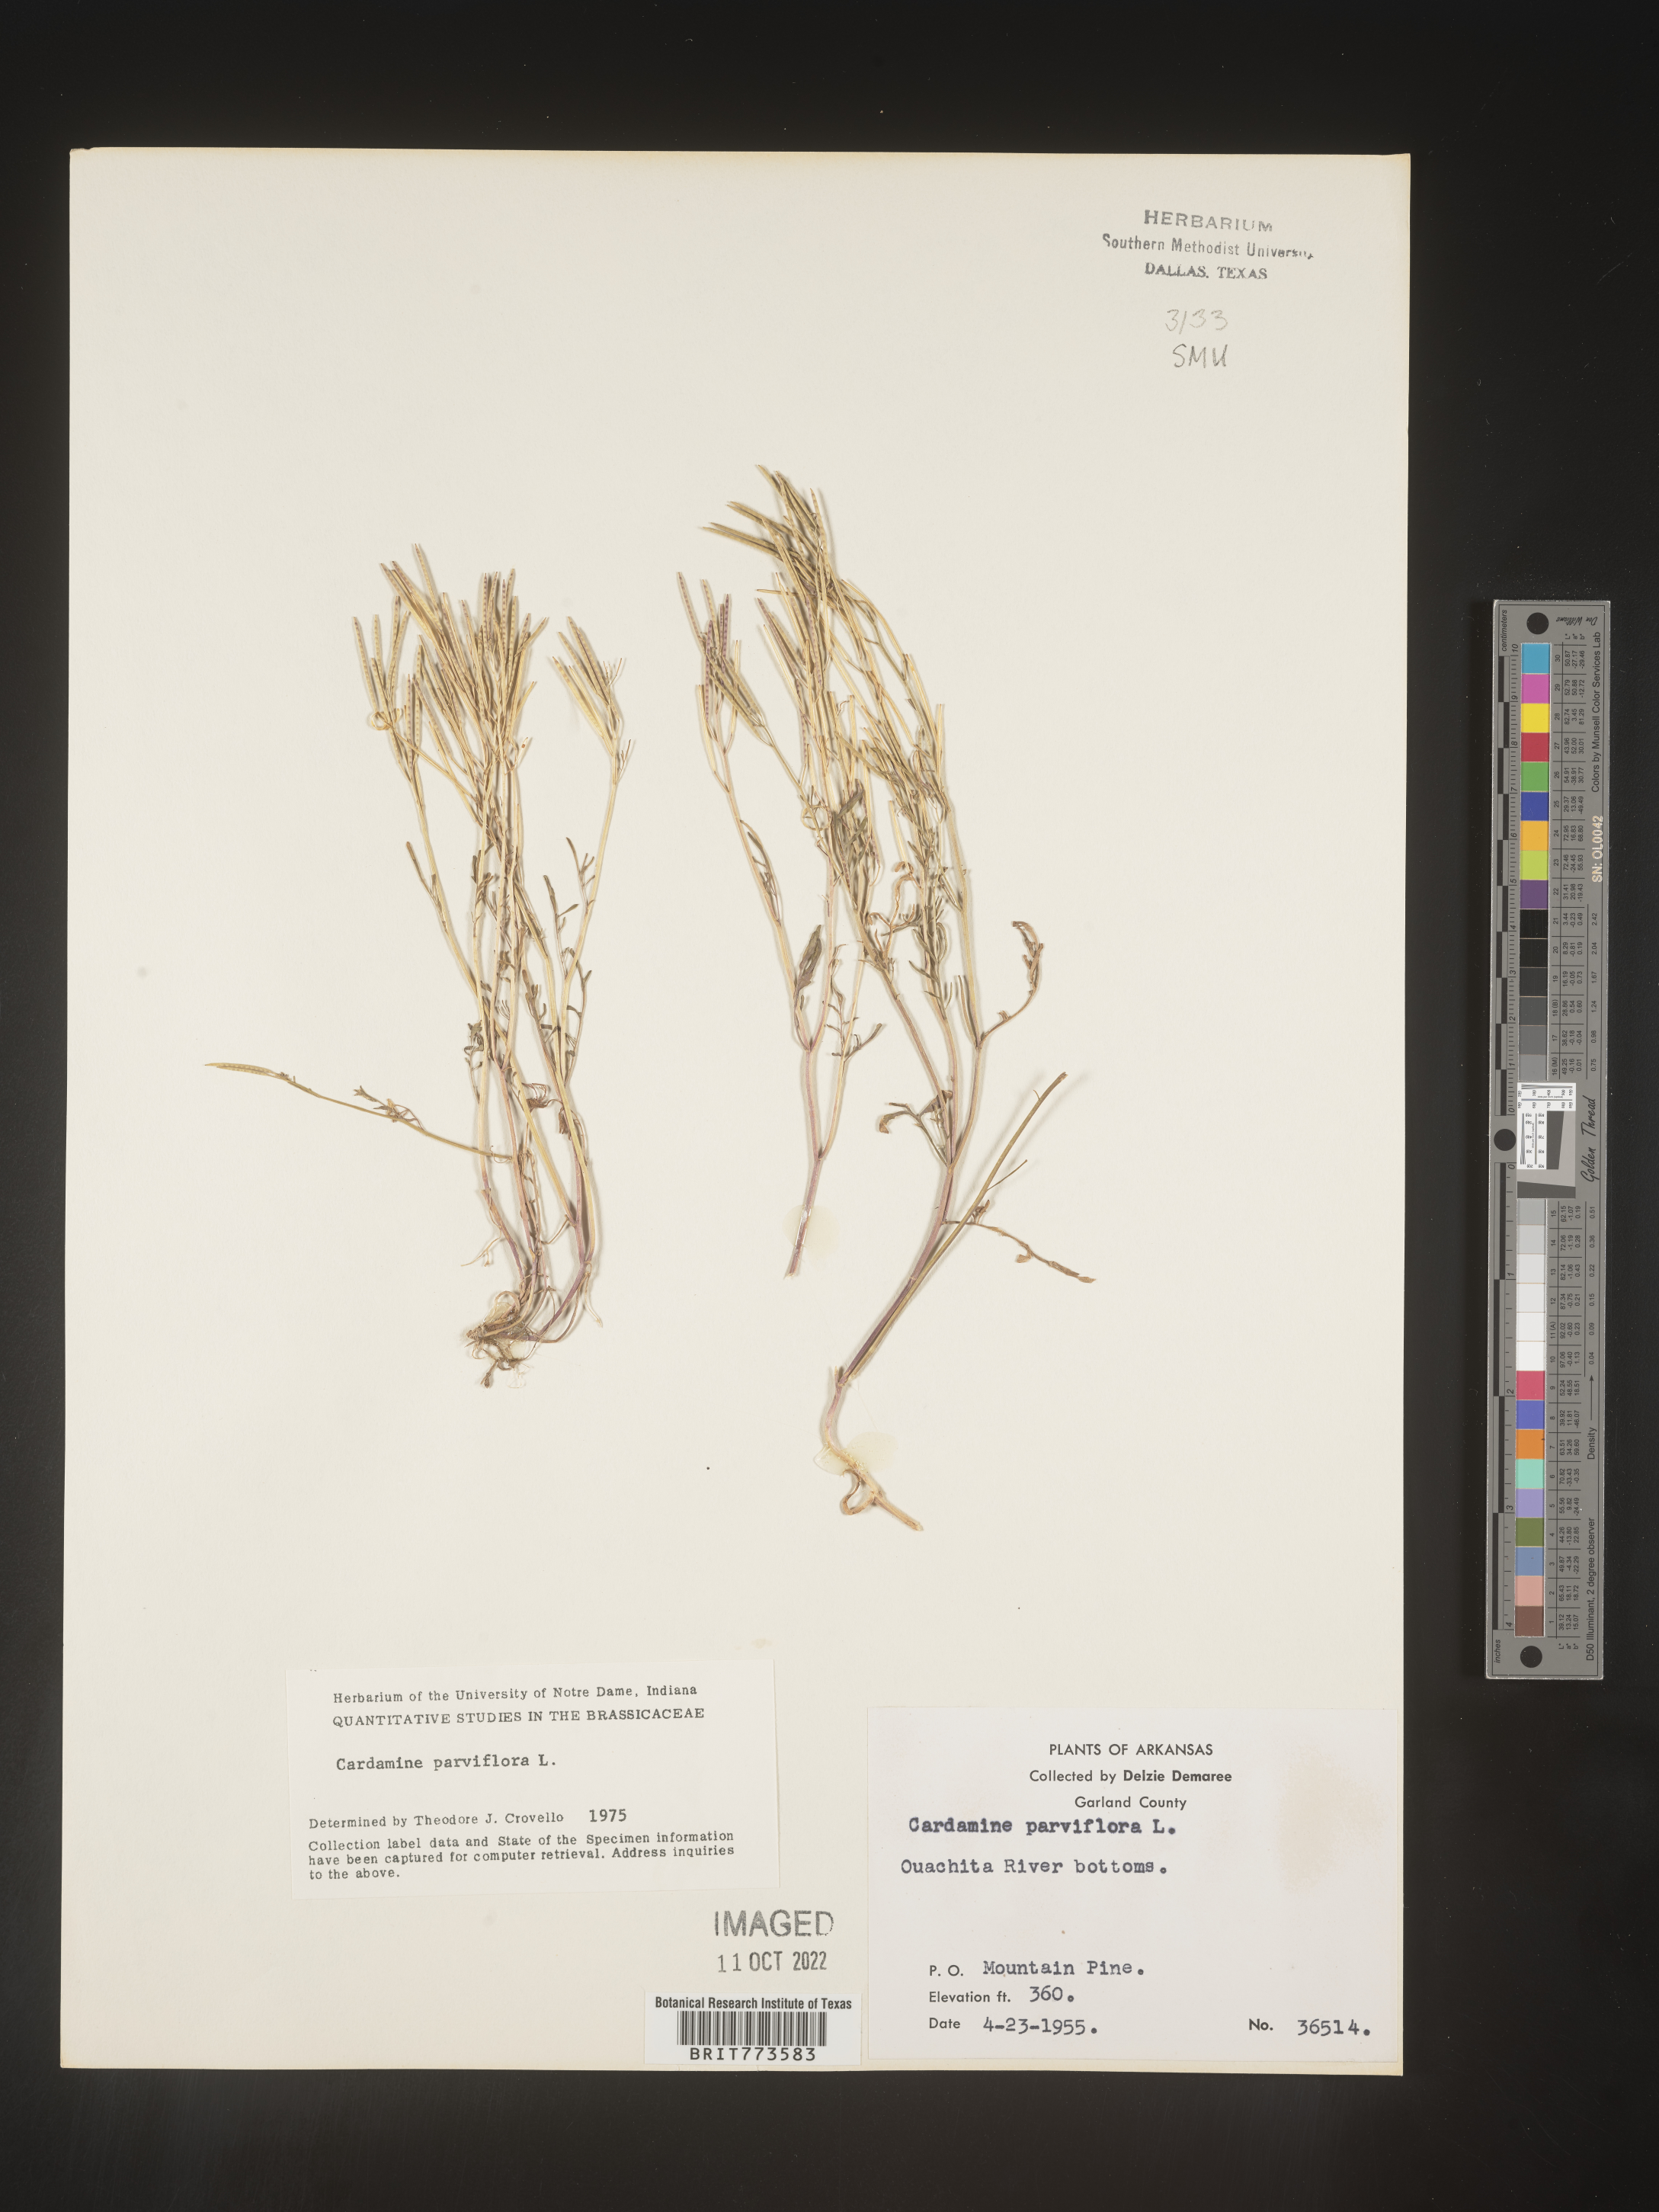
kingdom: Plantae
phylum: Tracheophyta
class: Magnoliopsida
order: Brassicales
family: Brassicaceae
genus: Cardamine
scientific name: Cardamine parviflora
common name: Sand bittercress
